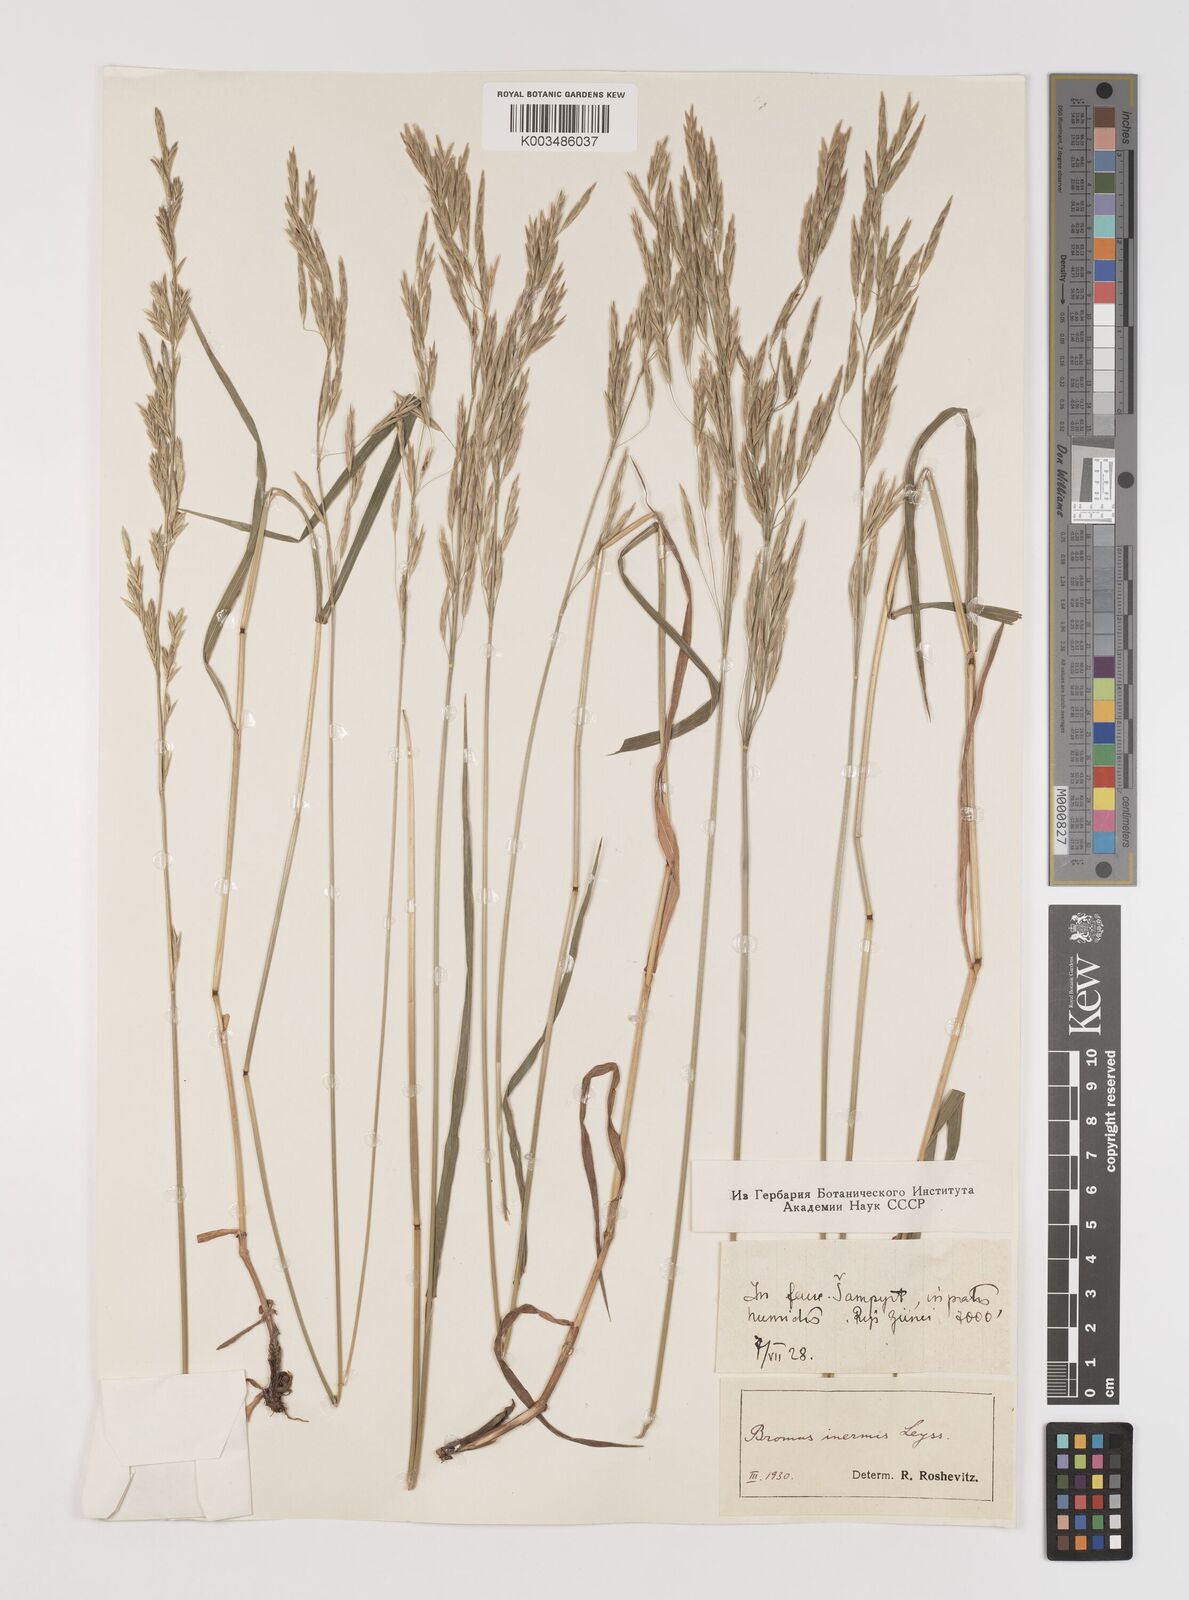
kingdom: Plantae
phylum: Tracheophyta
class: Liliopsida
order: Poales
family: Poaceae
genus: Bromus
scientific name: Bromus inermis
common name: Smooth brome
